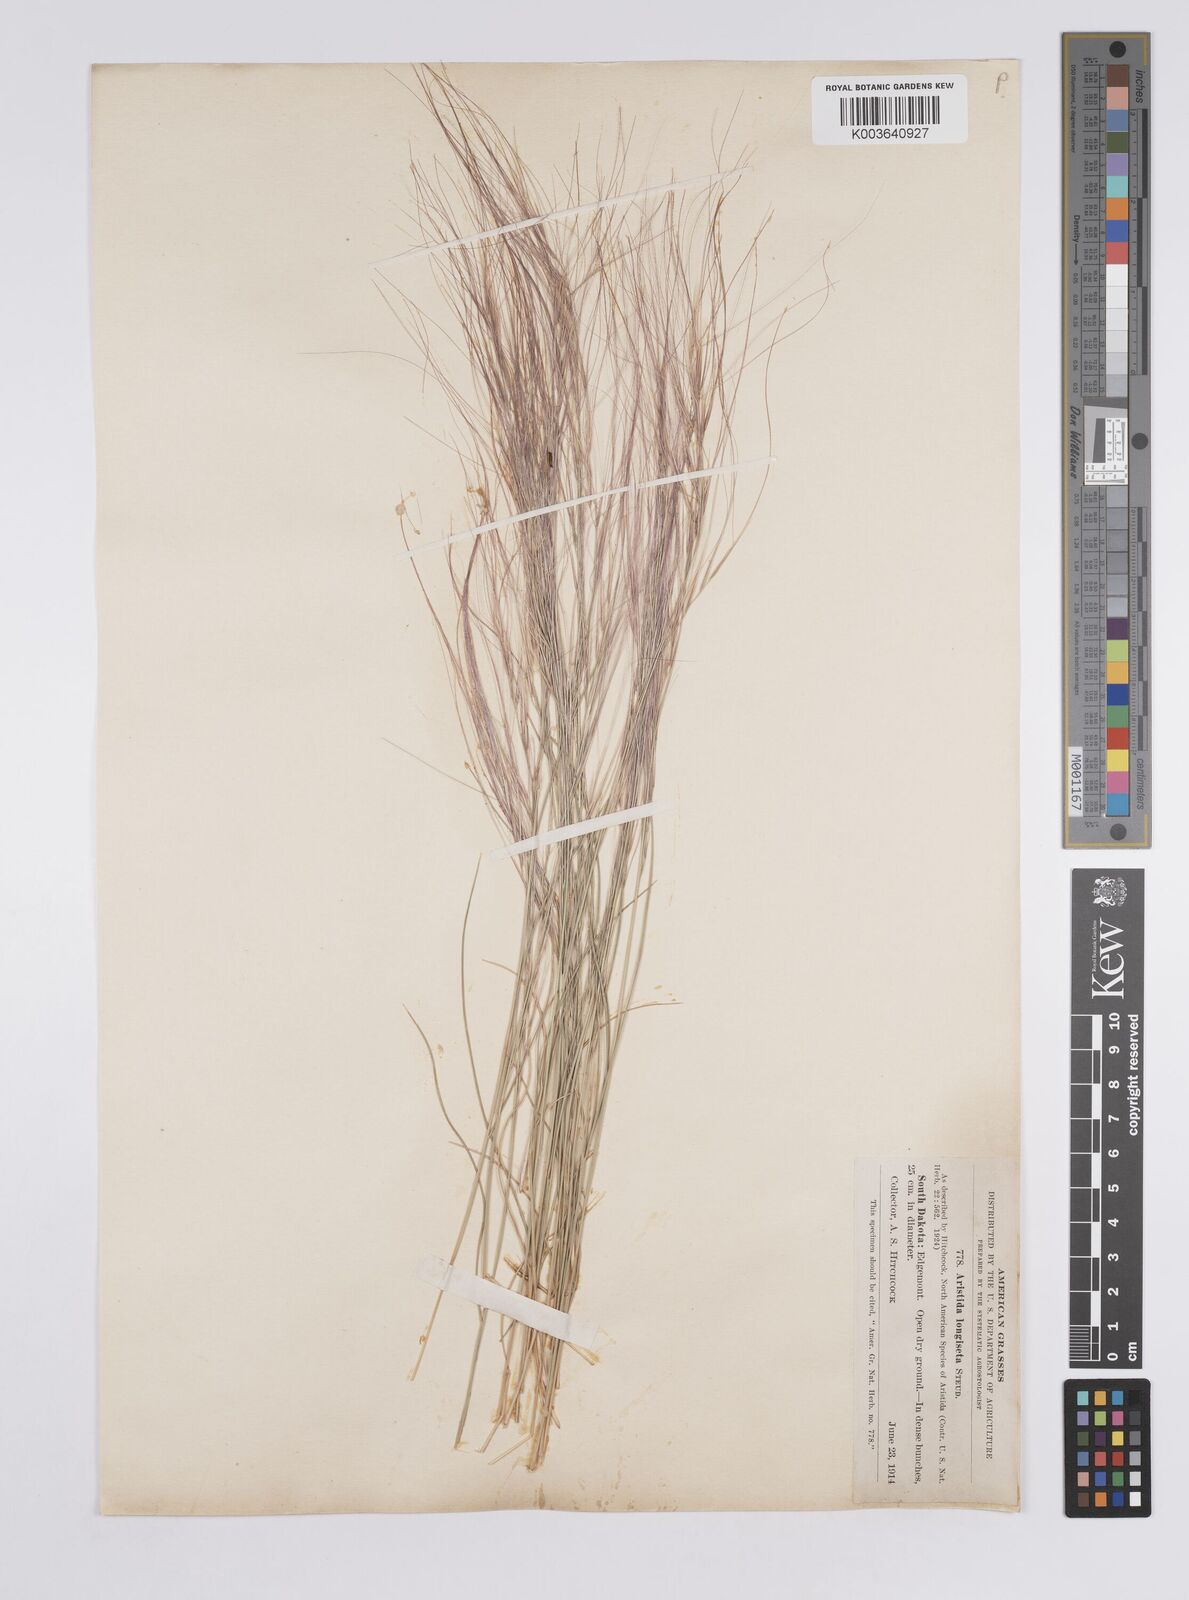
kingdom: Plantae
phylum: Tracheophyta
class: Liliopsida
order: Poales
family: Poaceae
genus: Aristida
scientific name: Aristida purpurea
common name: Purple threeawn
